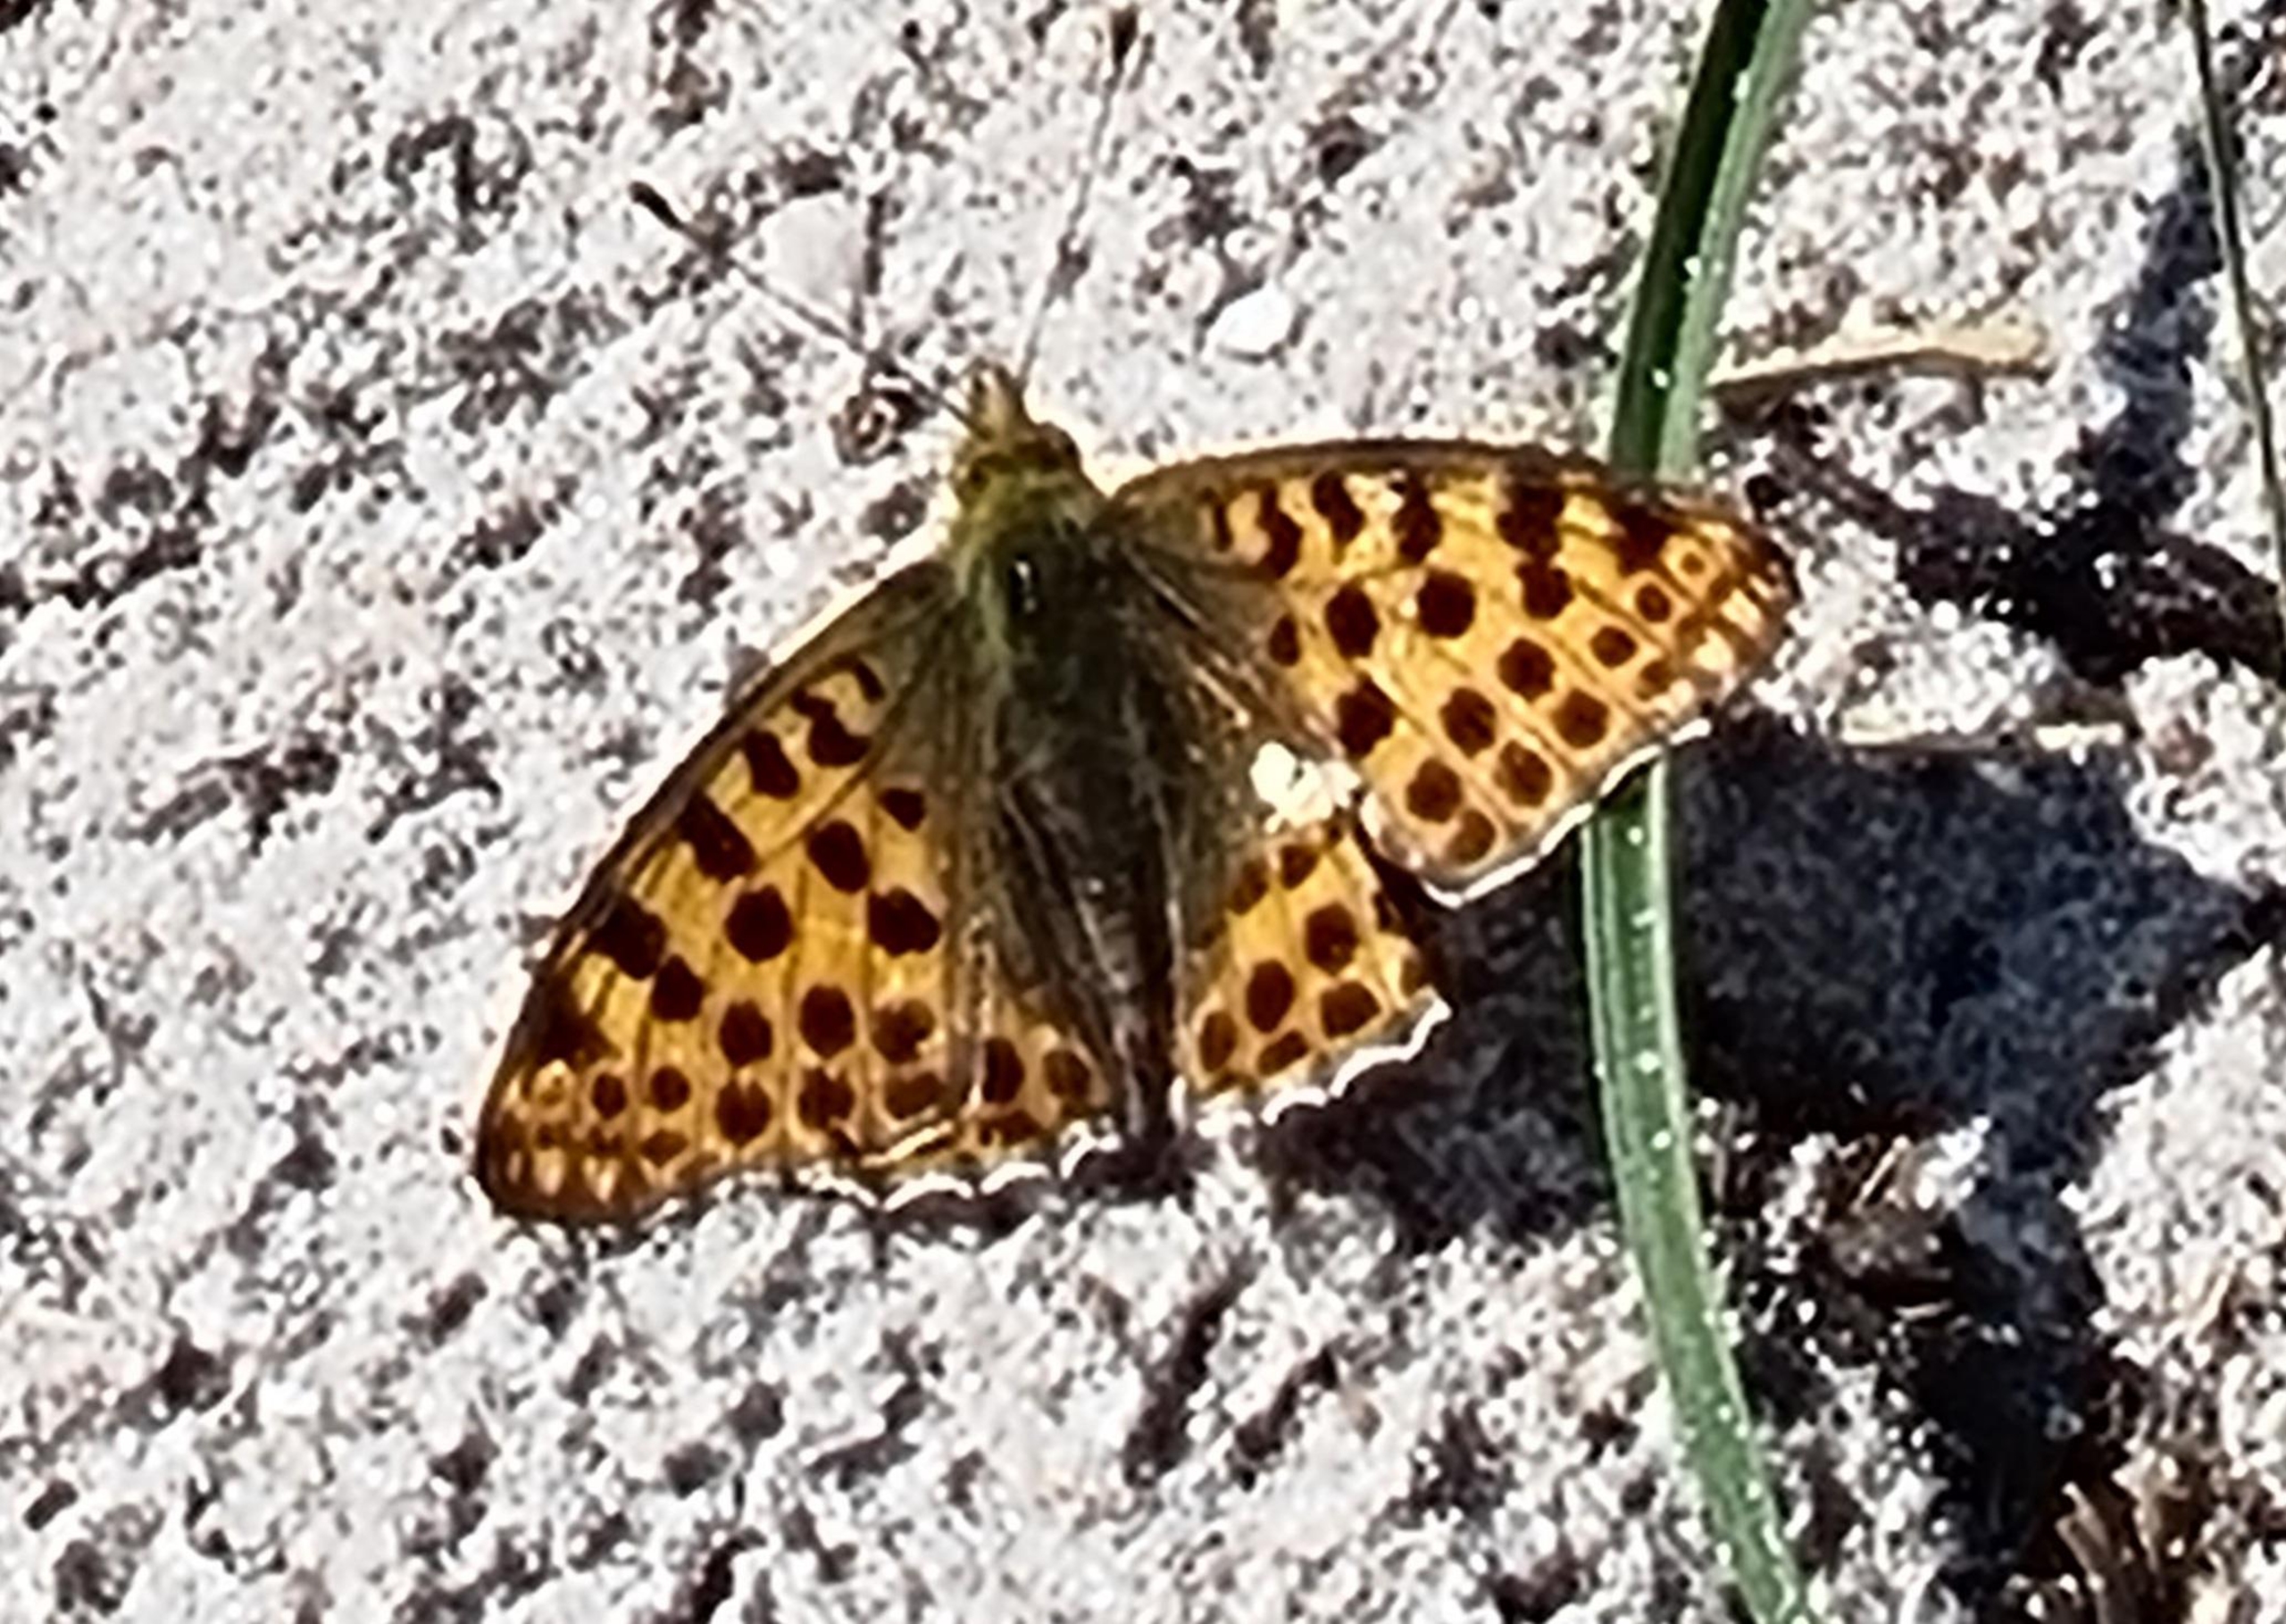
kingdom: Animalia
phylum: Arthropoda
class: Insecta
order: Lepidoptera
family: Nymphalidae
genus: Issoria
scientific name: Issoria lathonia
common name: Storplettet perlemorsommerfugl
